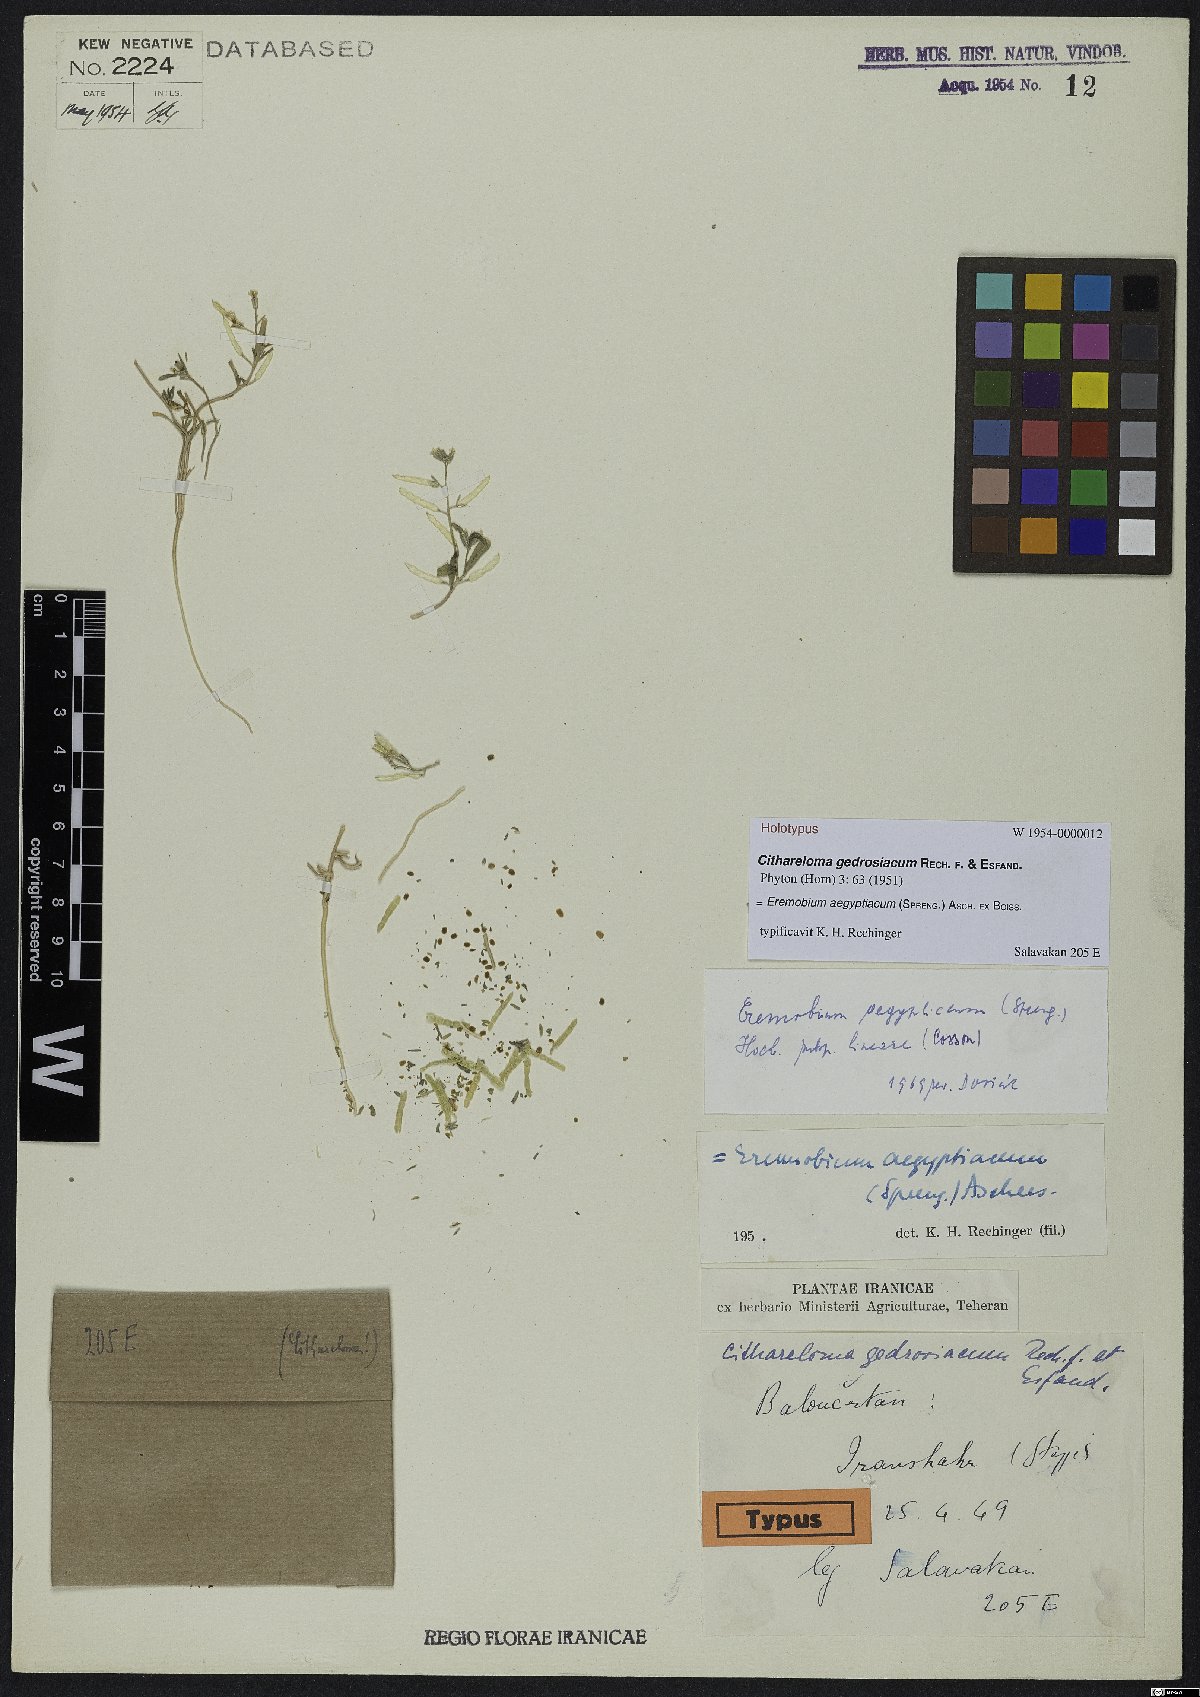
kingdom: Plantae
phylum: Tracheophyta
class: Magnoliopsida
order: Brassicales
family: Brassicaceae
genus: Eremobium
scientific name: Eremobium aegyptiacum
